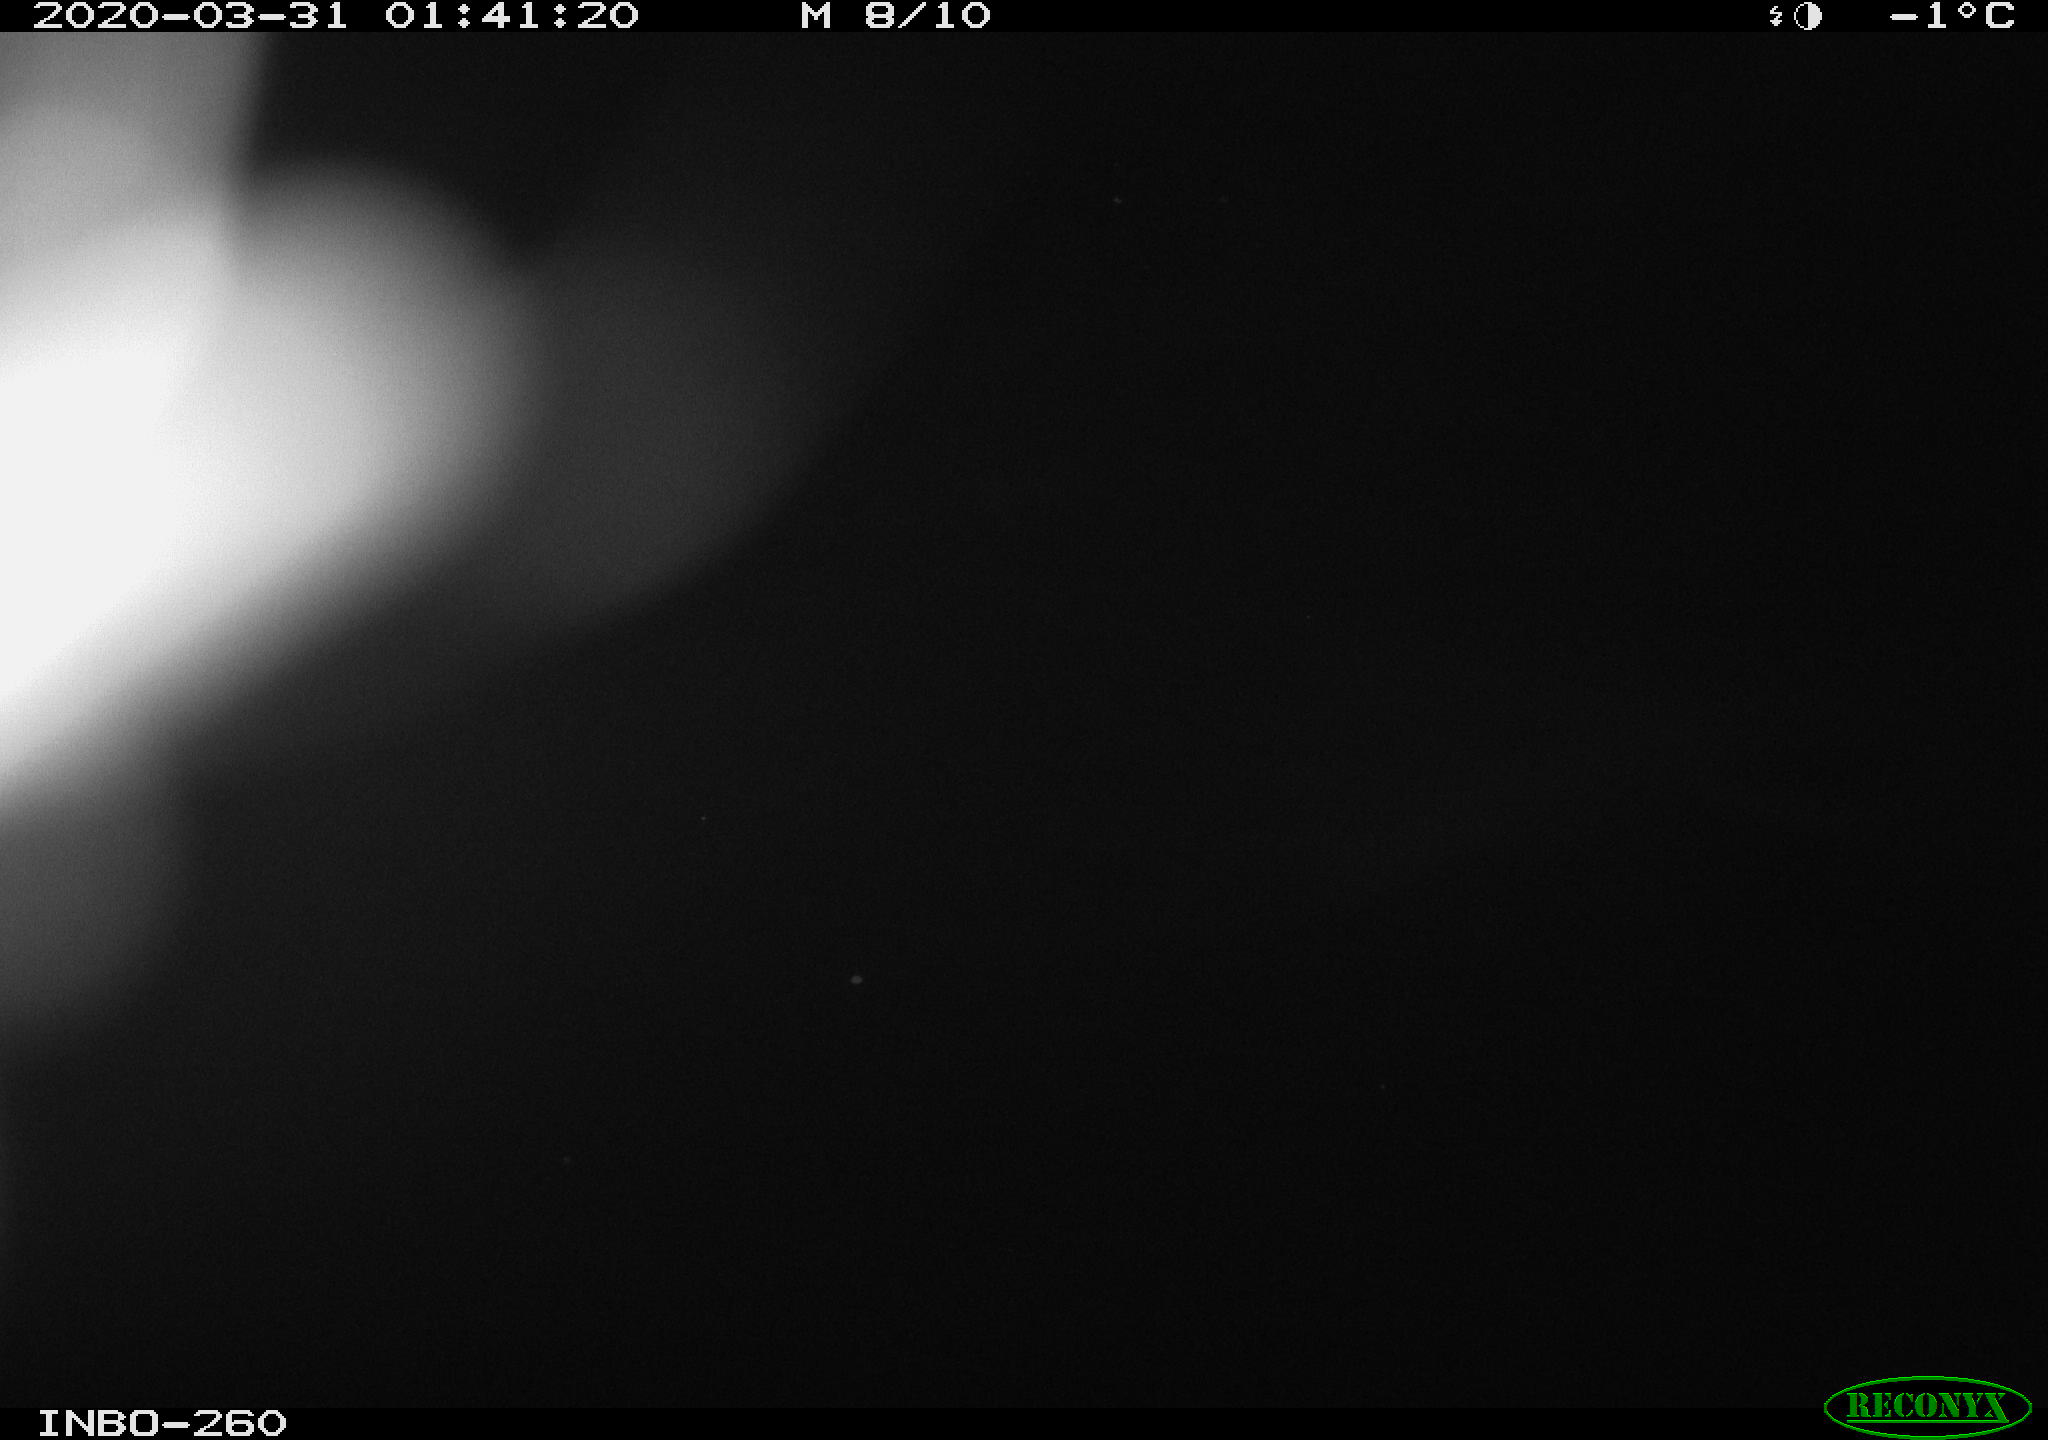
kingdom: Animalia
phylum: Chordata
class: Aves
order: Anseriformes
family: Anatidae
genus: Anas
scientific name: Anas platyrhynchos
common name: Mallard
